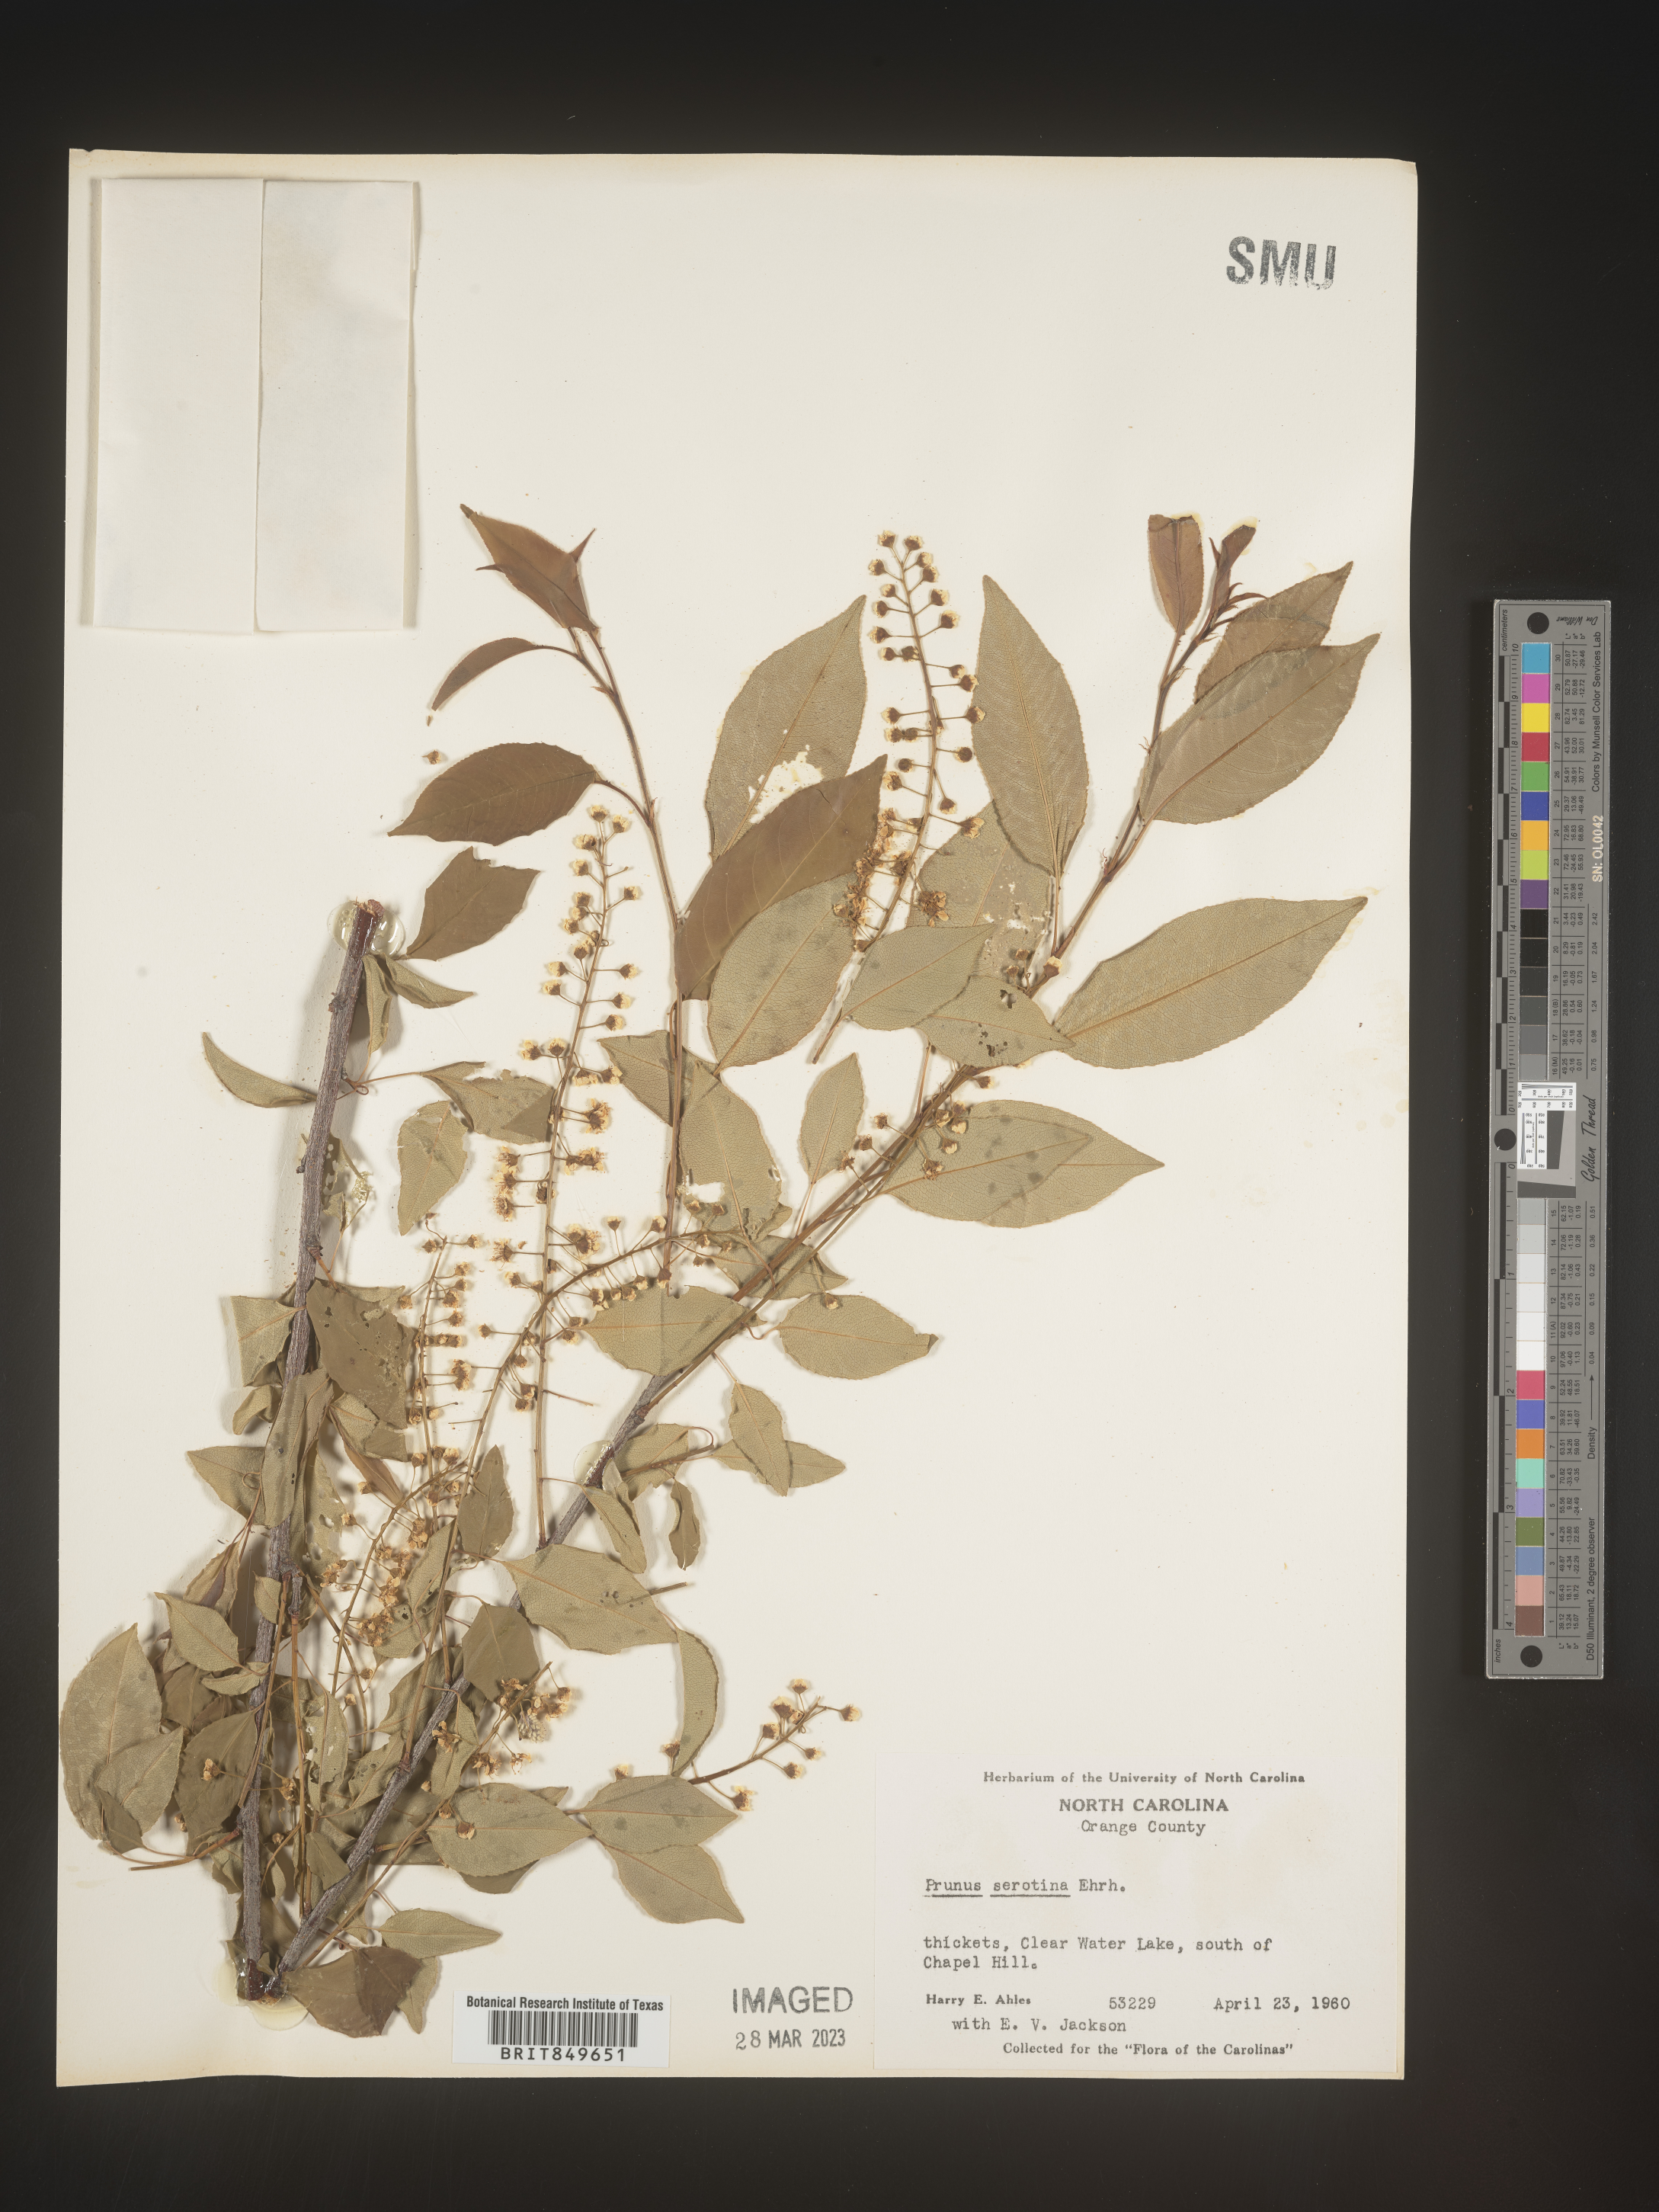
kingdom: Plantae
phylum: Tracheophyta
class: Magnoliopsida
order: Rosales
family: Rosaceae
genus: Prunus
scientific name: Prunus serotina
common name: Black cherry
